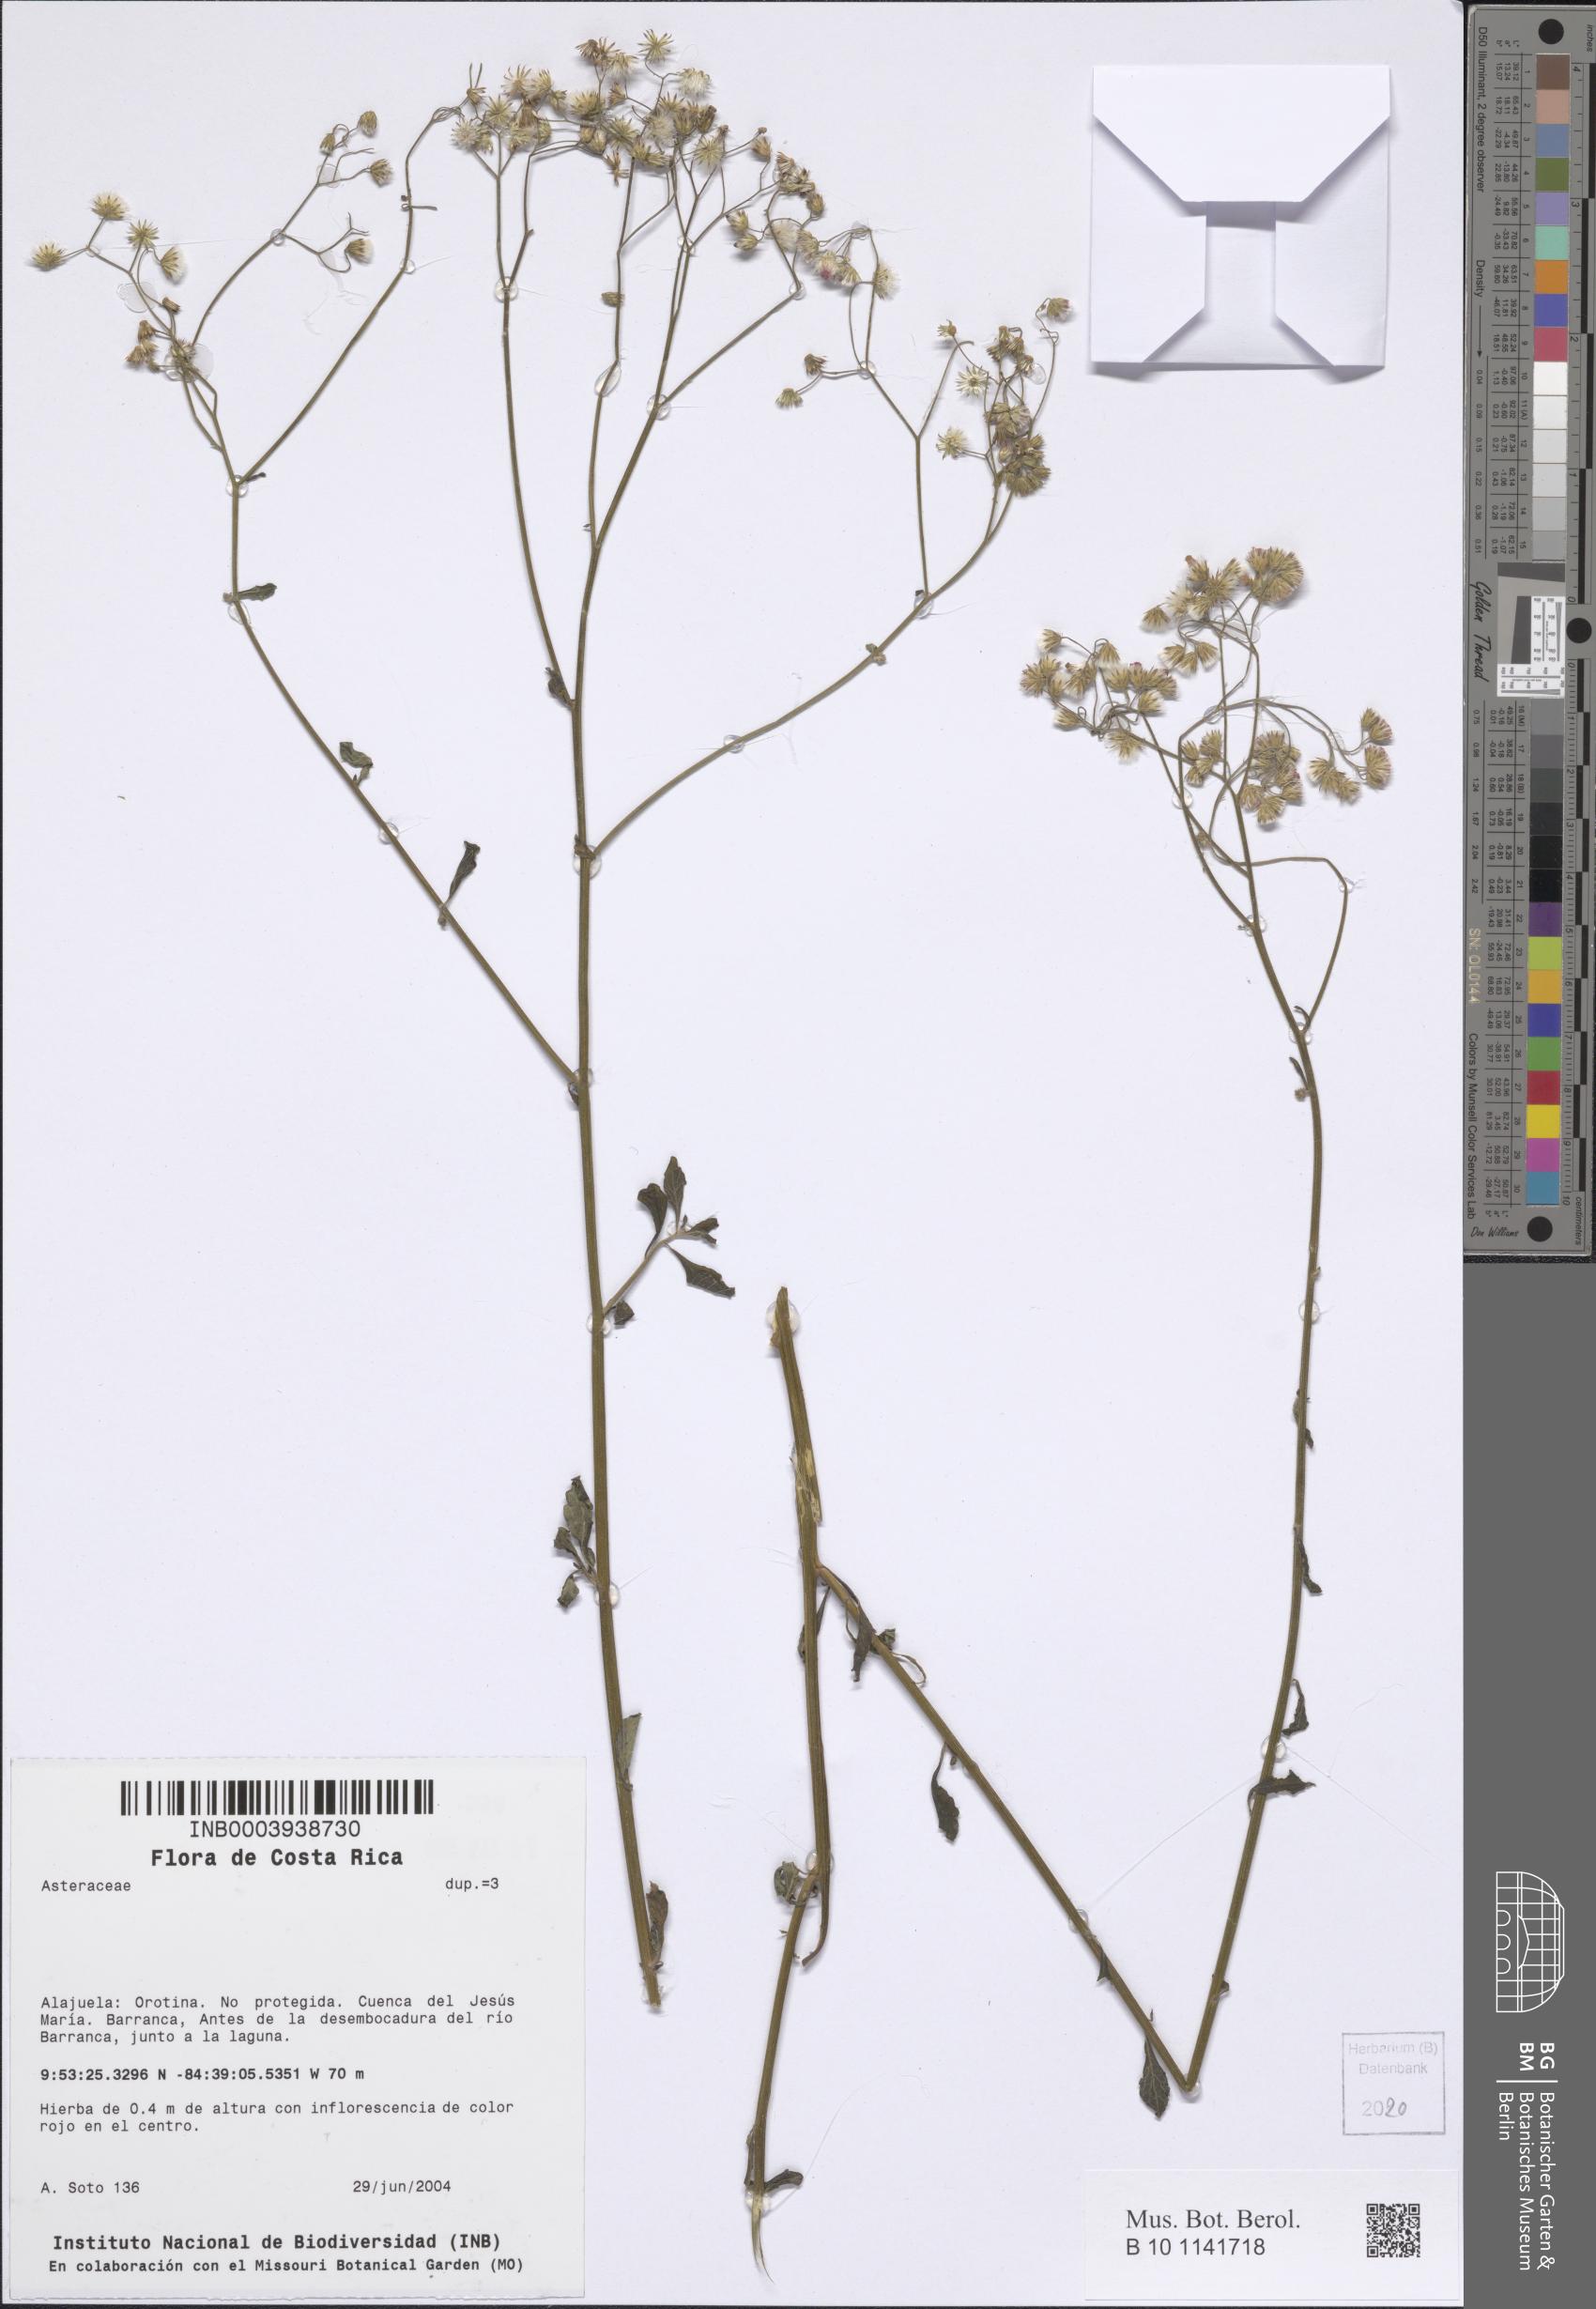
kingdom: Plantae
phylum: Tracheophyta
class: Magnoliopsida
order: Asterales
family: Asteraceae
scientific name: Asteraceae
